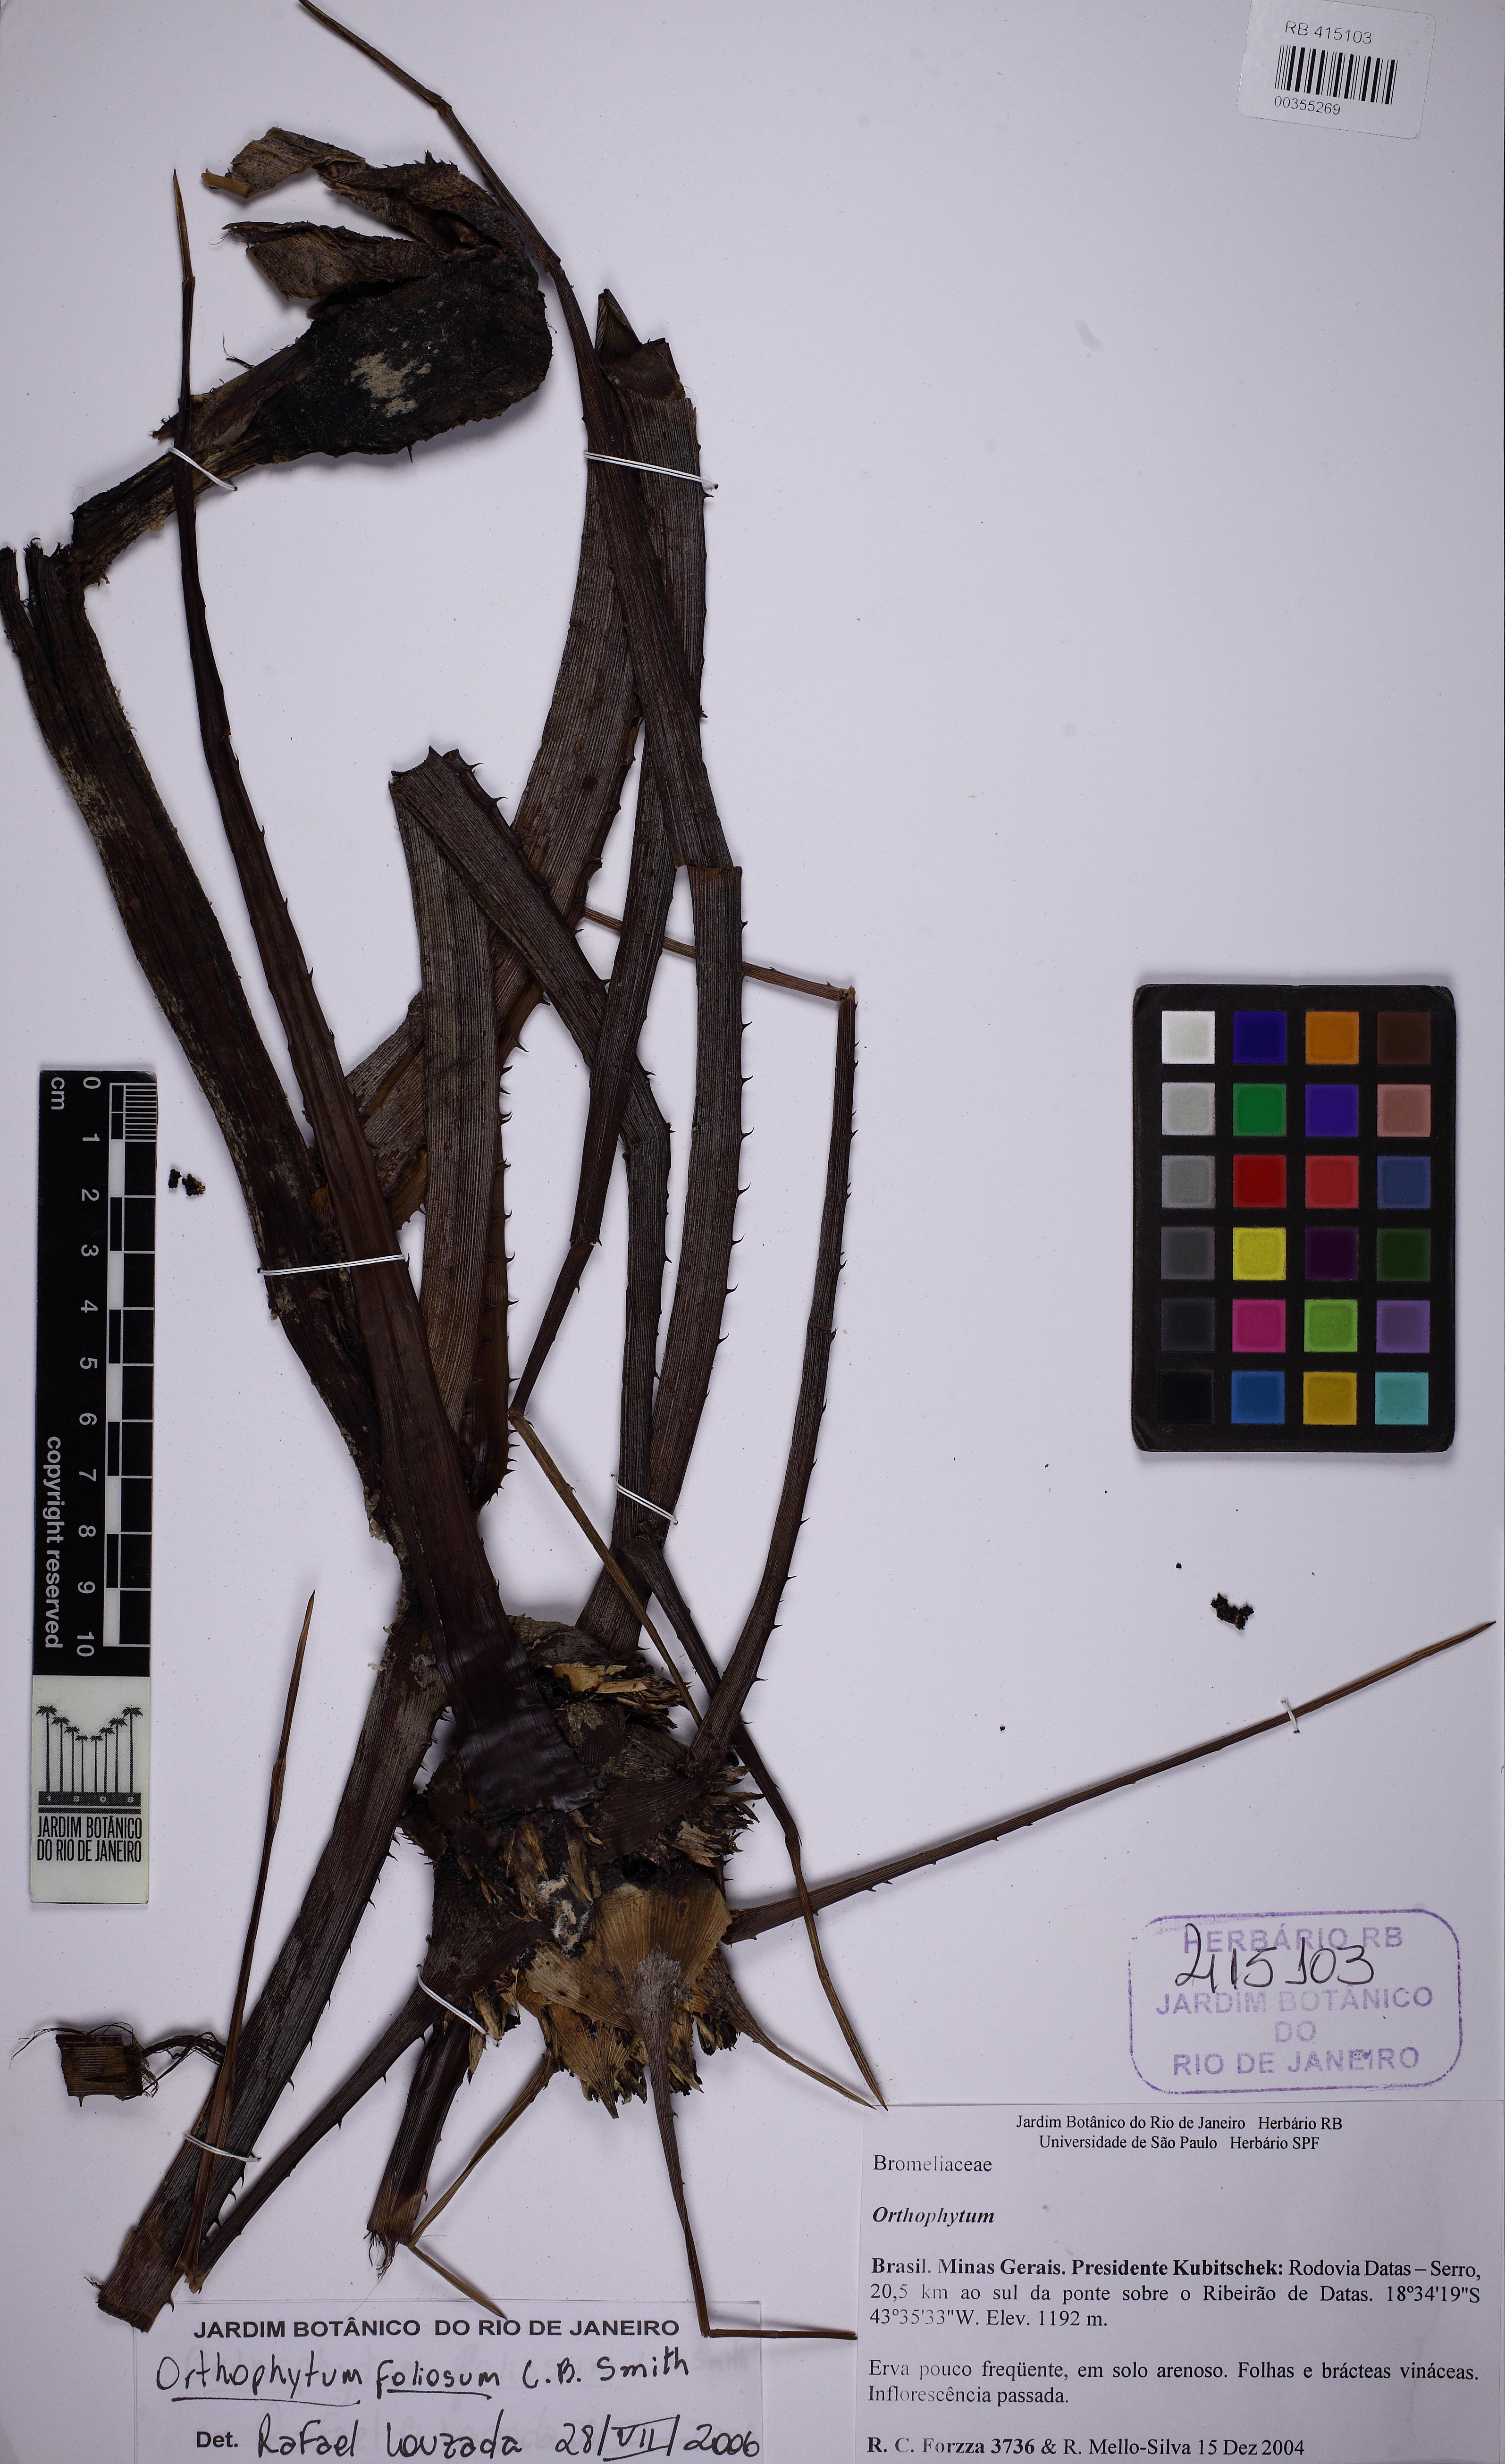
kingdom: Plantae
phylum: Tracheophyta
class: Liliopsida
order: Poales
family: Bromeliaceae
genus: Orthophytum
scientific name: Orthophytum foliosum
